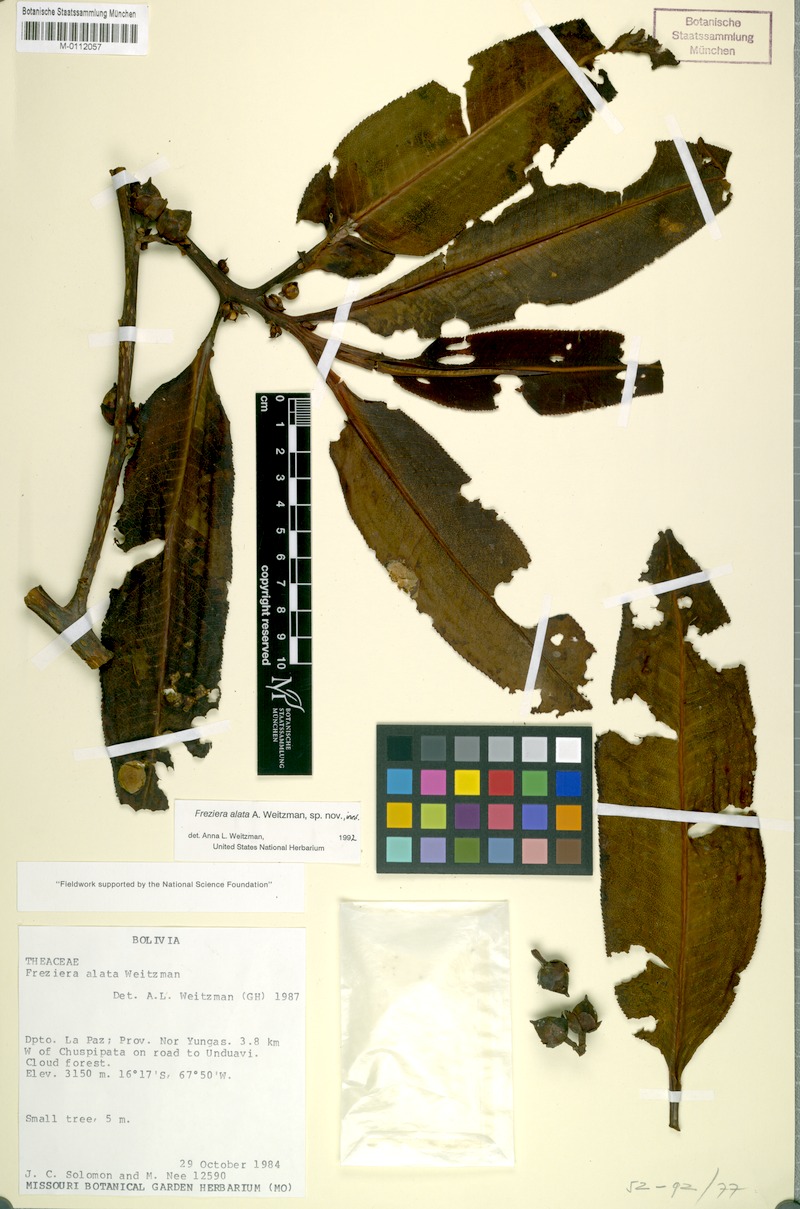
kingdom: Plantae
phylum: Tracheophyta
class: Magnoliopsida
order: Ericales
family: Pentaphylacaceae
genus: Freziera
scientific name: Freziera alata
